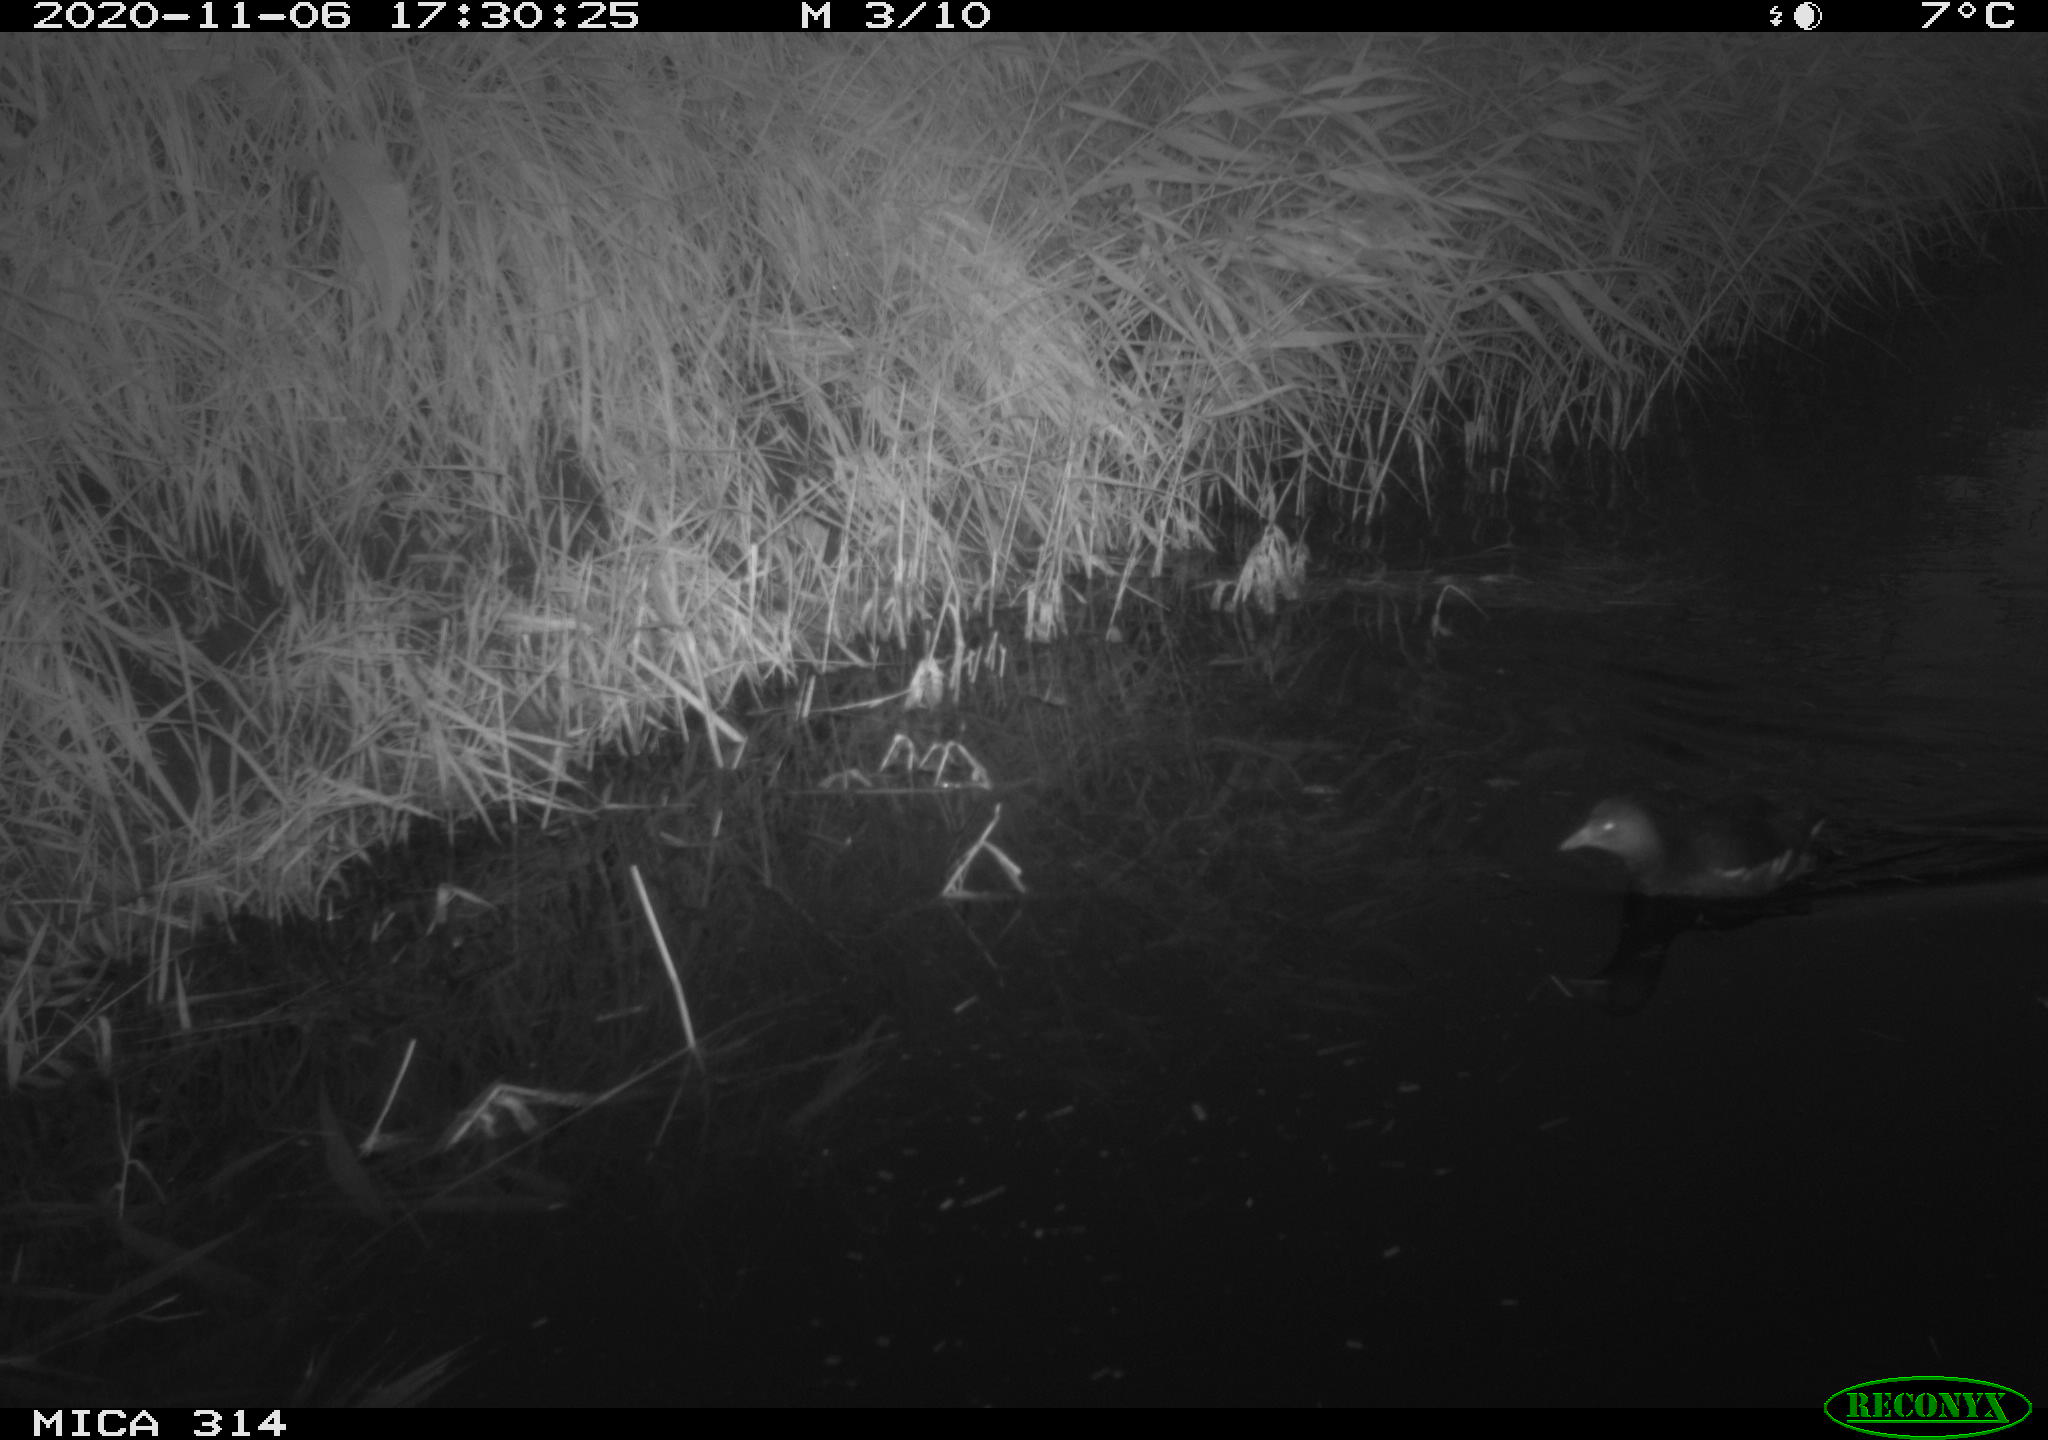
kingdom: Animalia
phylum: Chordata
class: Aves
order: Gruiformes
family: Rallidae
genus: Gallinula
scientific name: Gallinula chloropus
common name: Common moorhen
